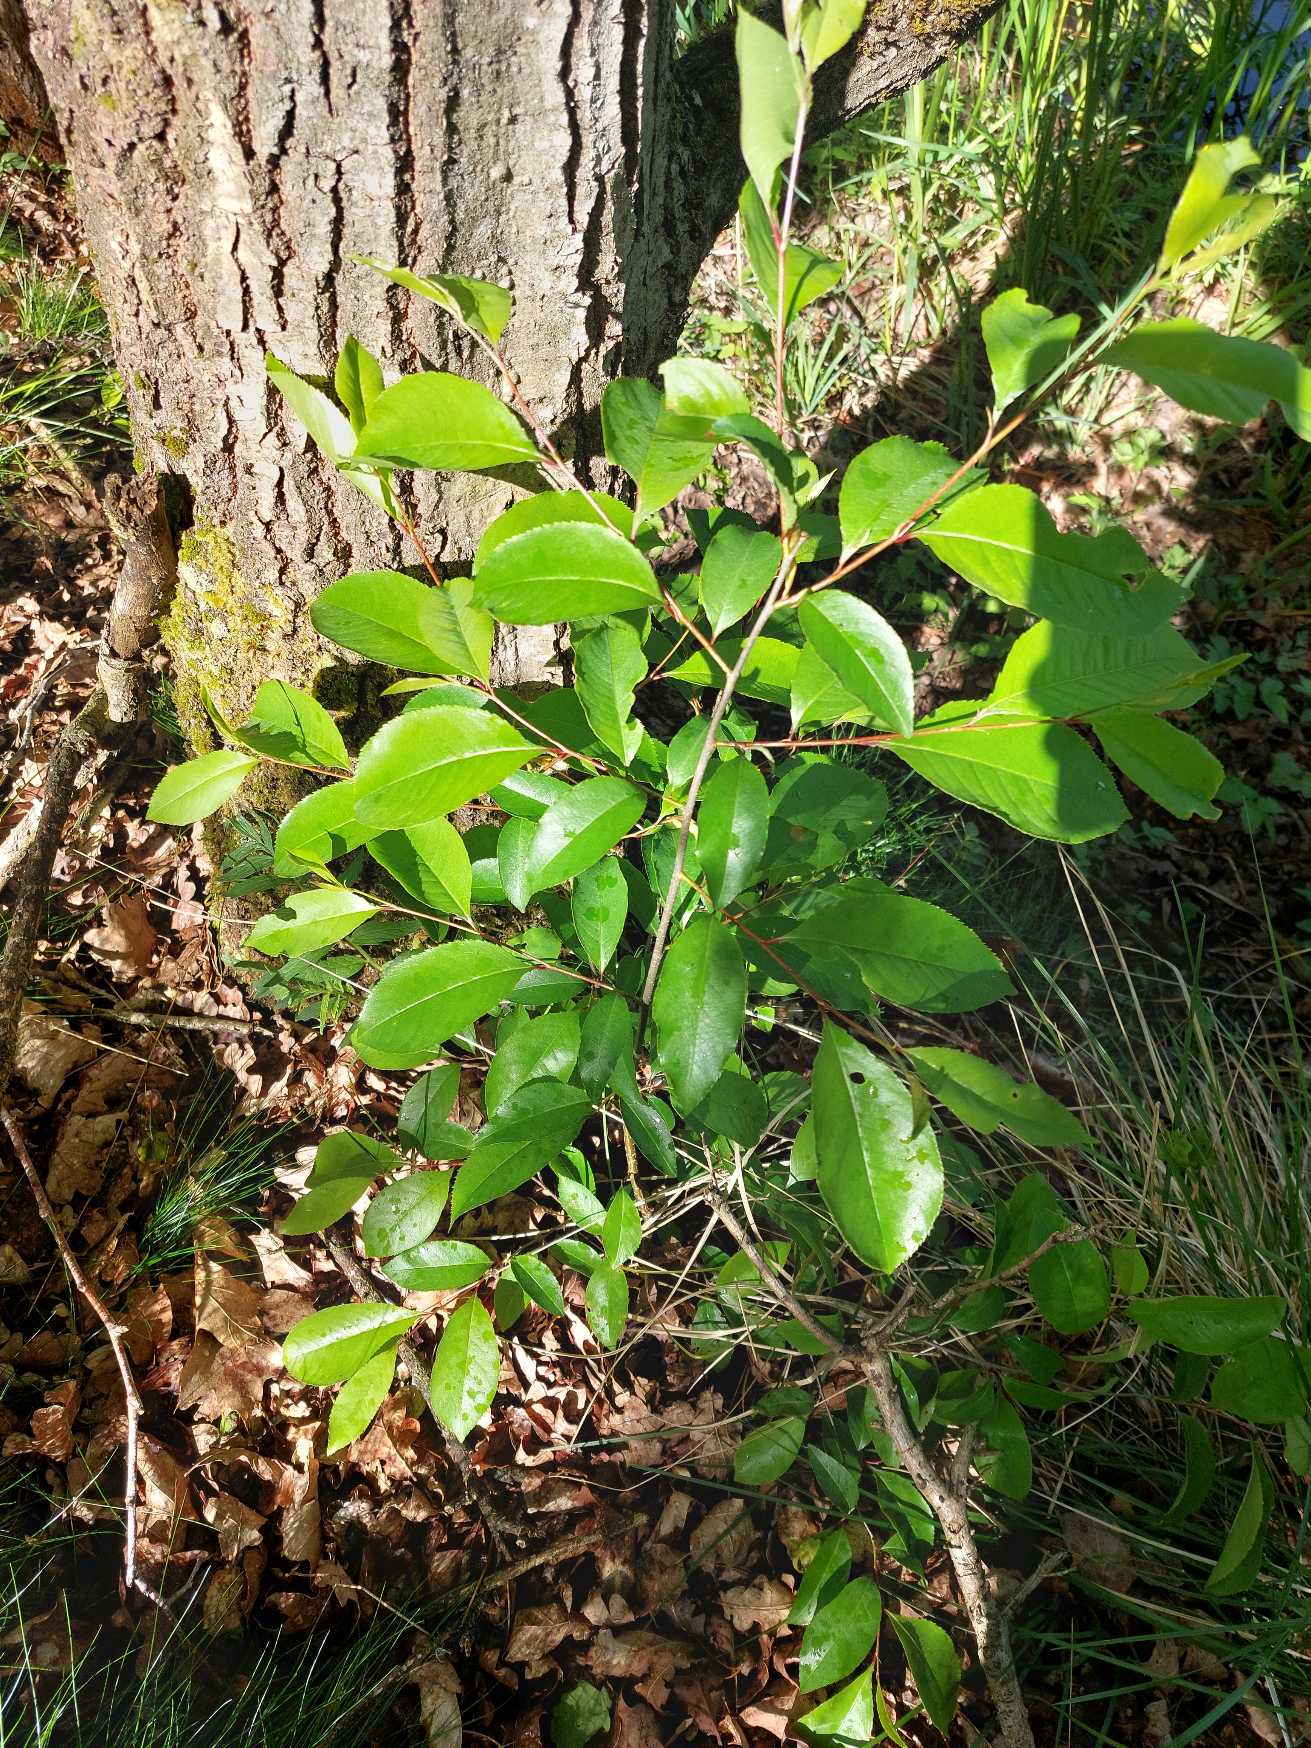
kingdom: Plantae
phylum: Tracheophyta
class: Magnoliopsida
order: Rosales
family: Rosaceae
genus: Prunus
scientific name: Prunus serotina
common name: Glansbladet hæg
